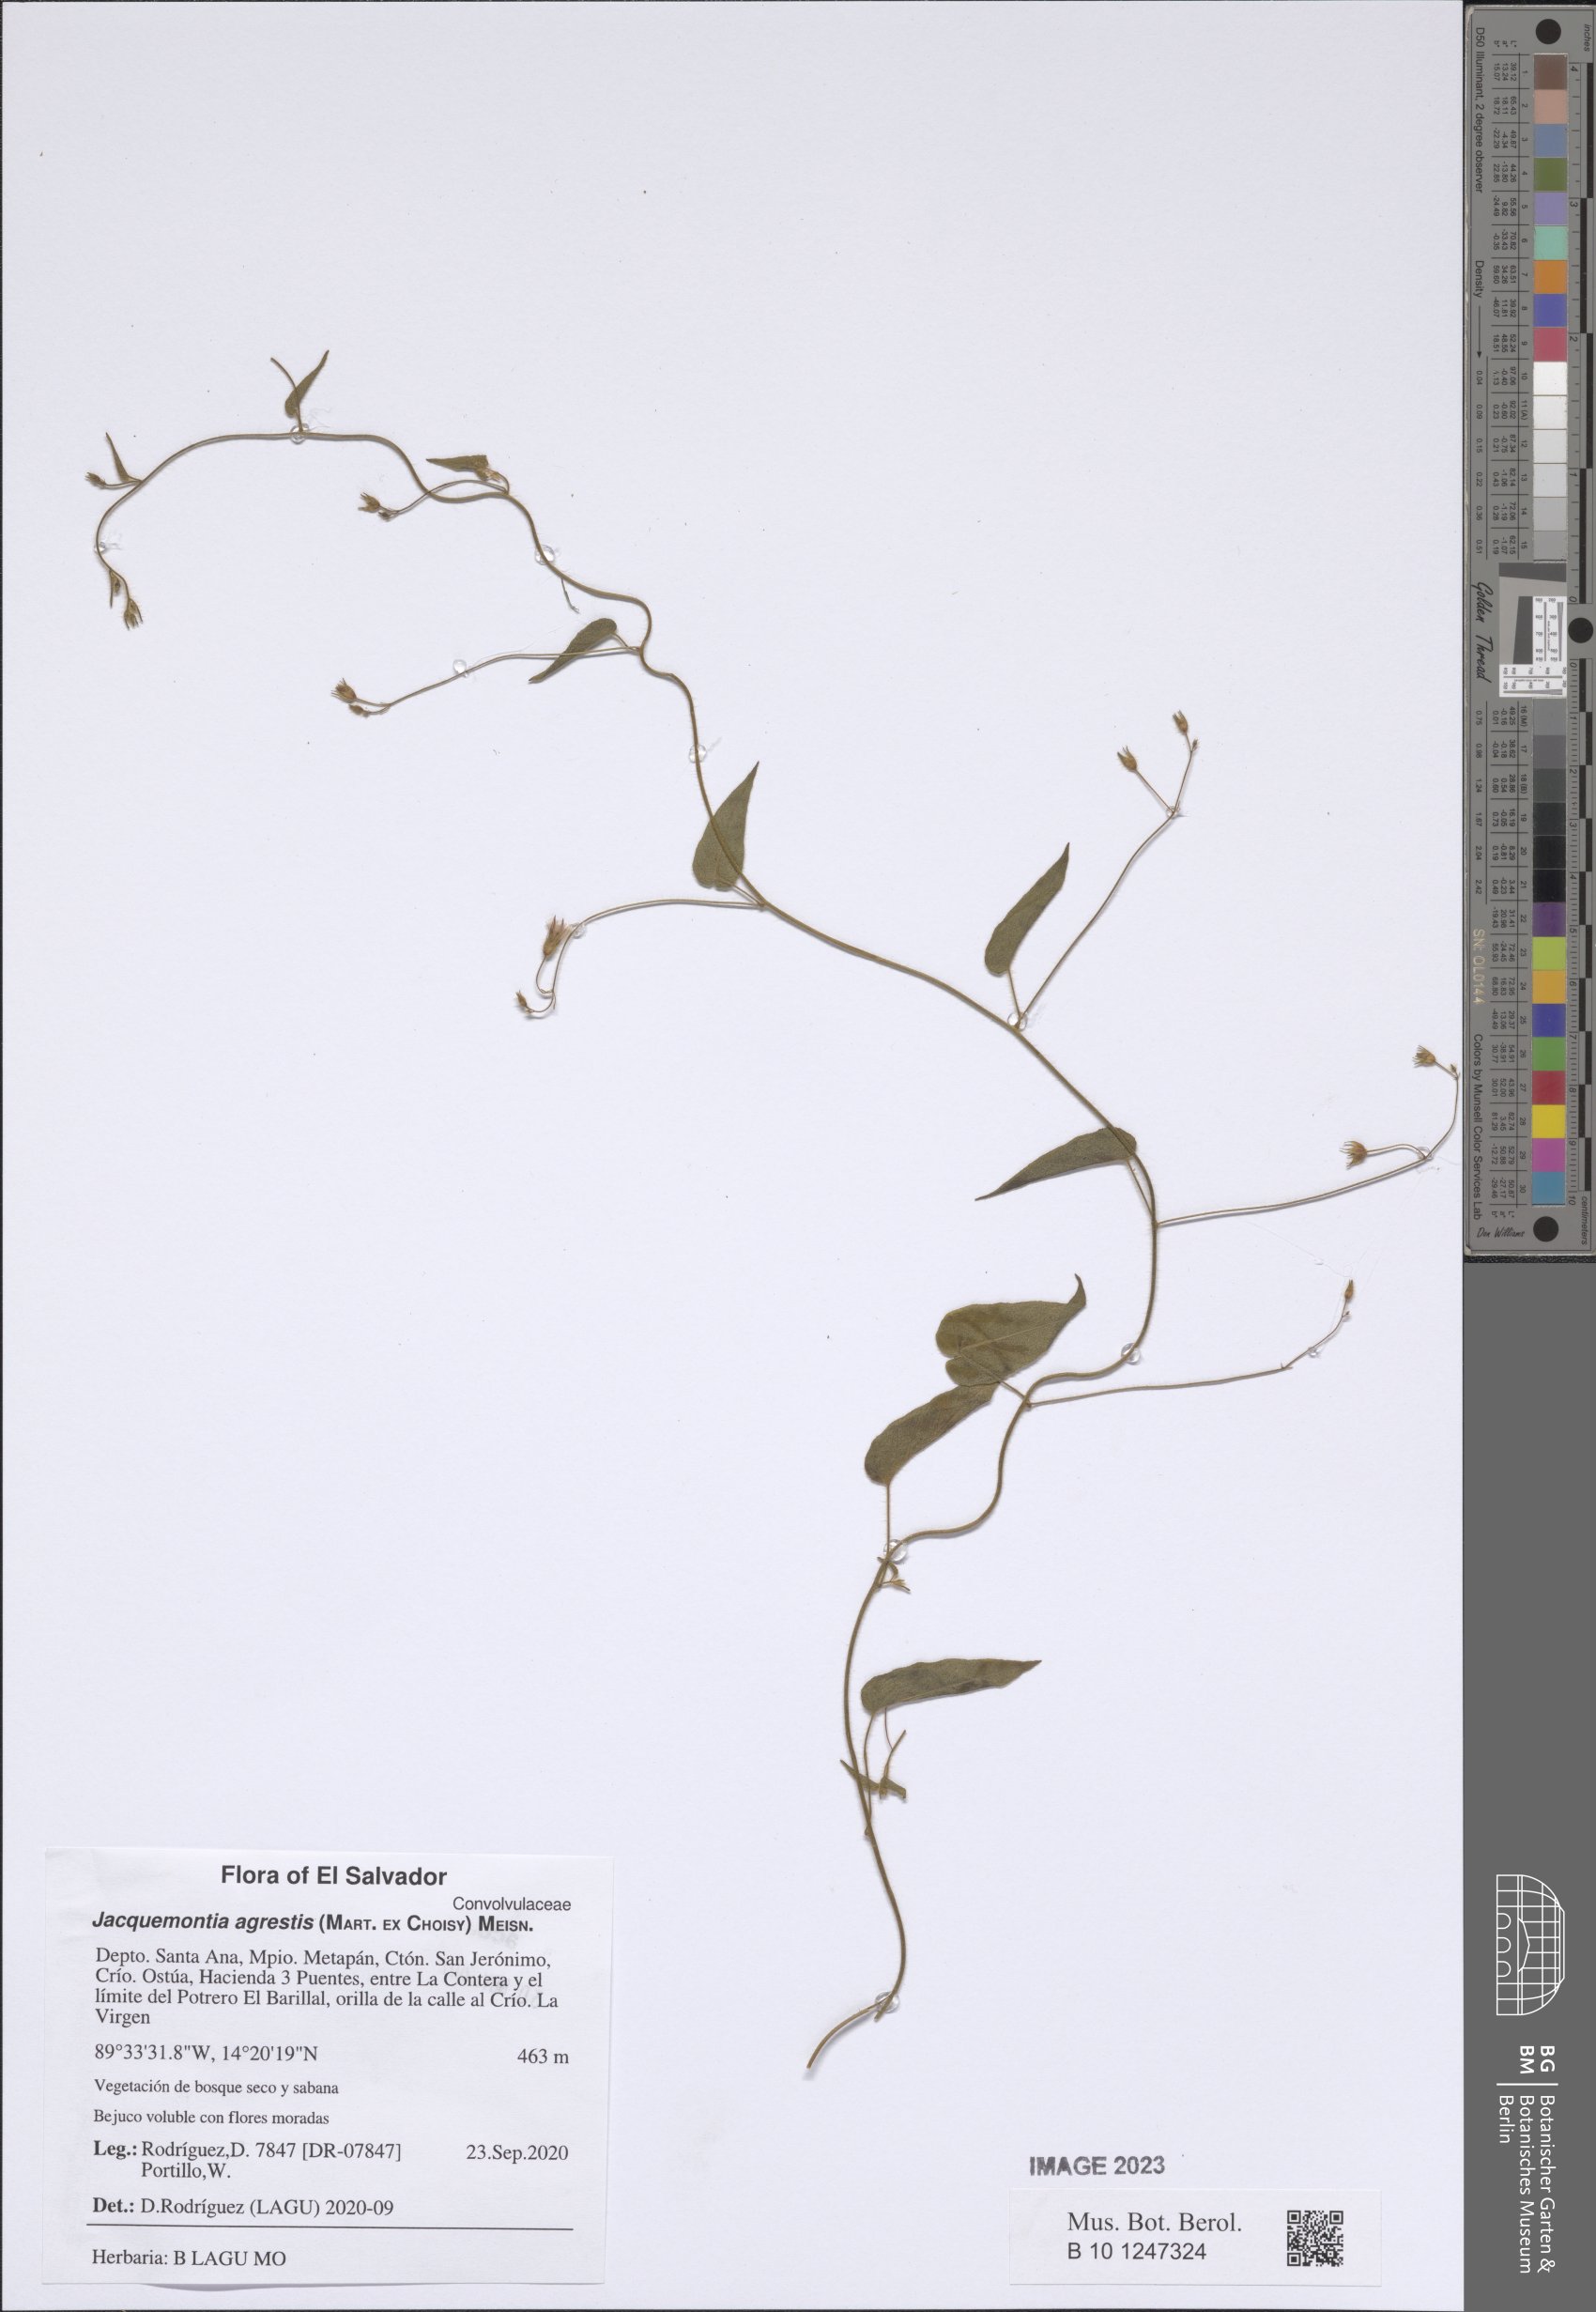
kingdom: Plantae
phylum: Tracheophyta
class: Magnoliopsida
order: Solanales
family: Convolvulaceae
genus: Jacquemontia
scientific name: Jacquemontia agrestis
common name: Midnightblue clustervine
